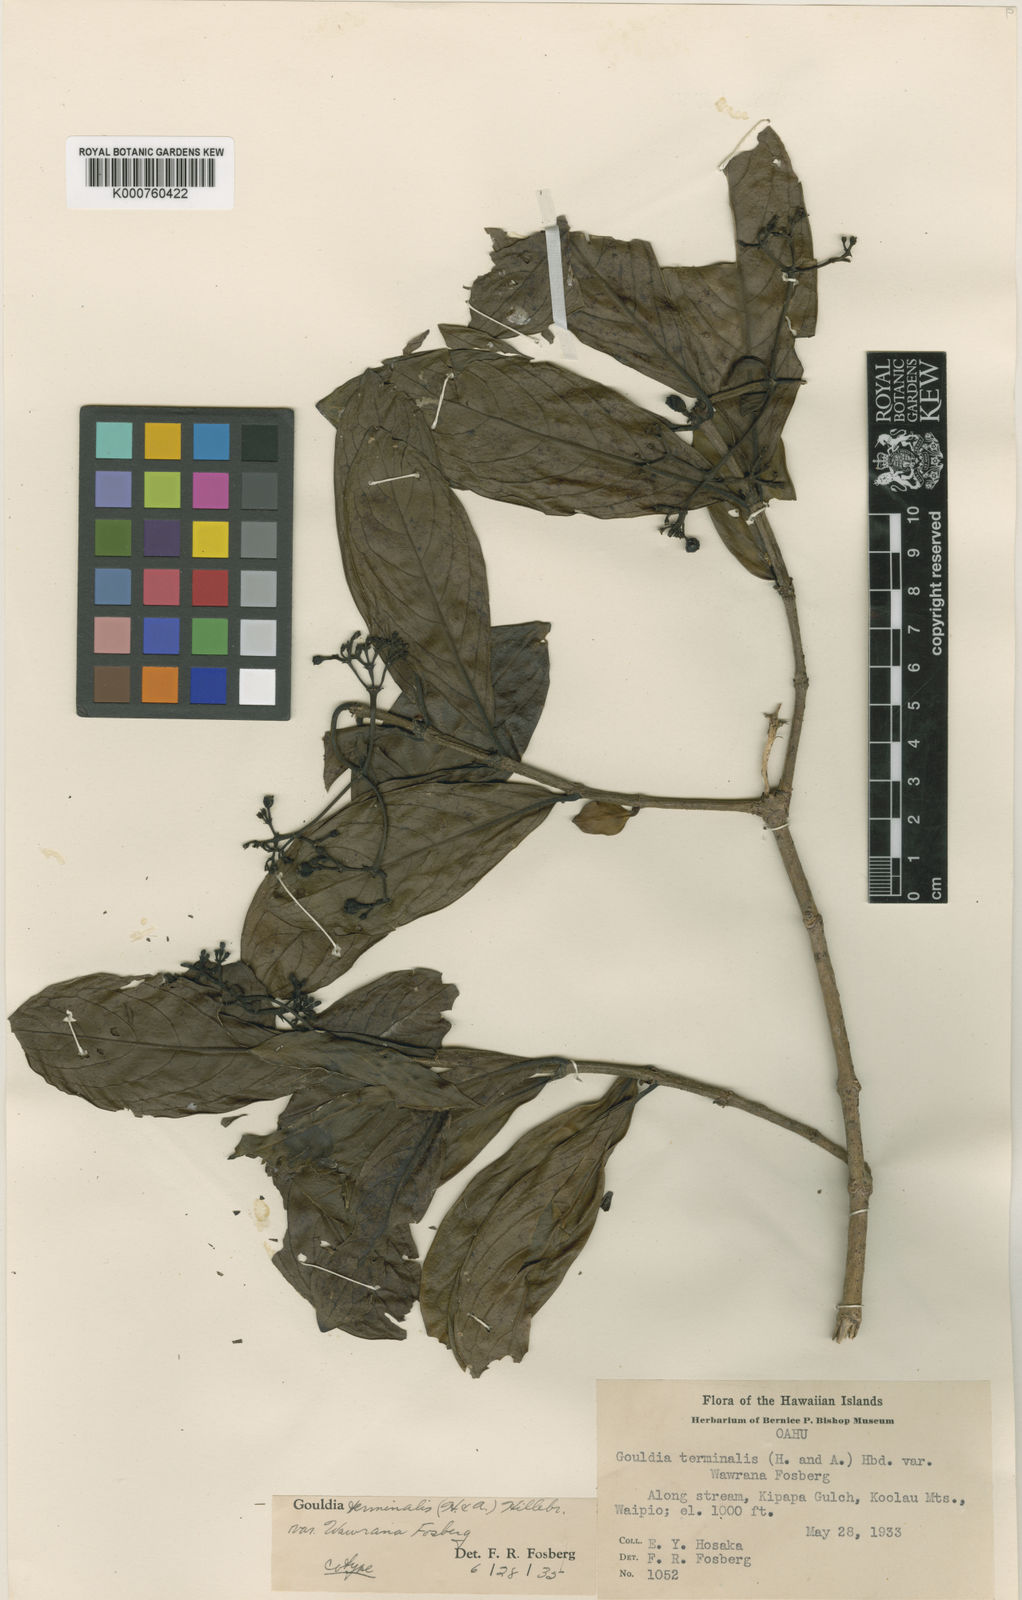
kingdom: Plantae
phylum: Tracheophyta
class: Magnoliopsida
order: Gentianales
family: Rubiaceae
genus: Kadua
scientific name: Kadua affinis
